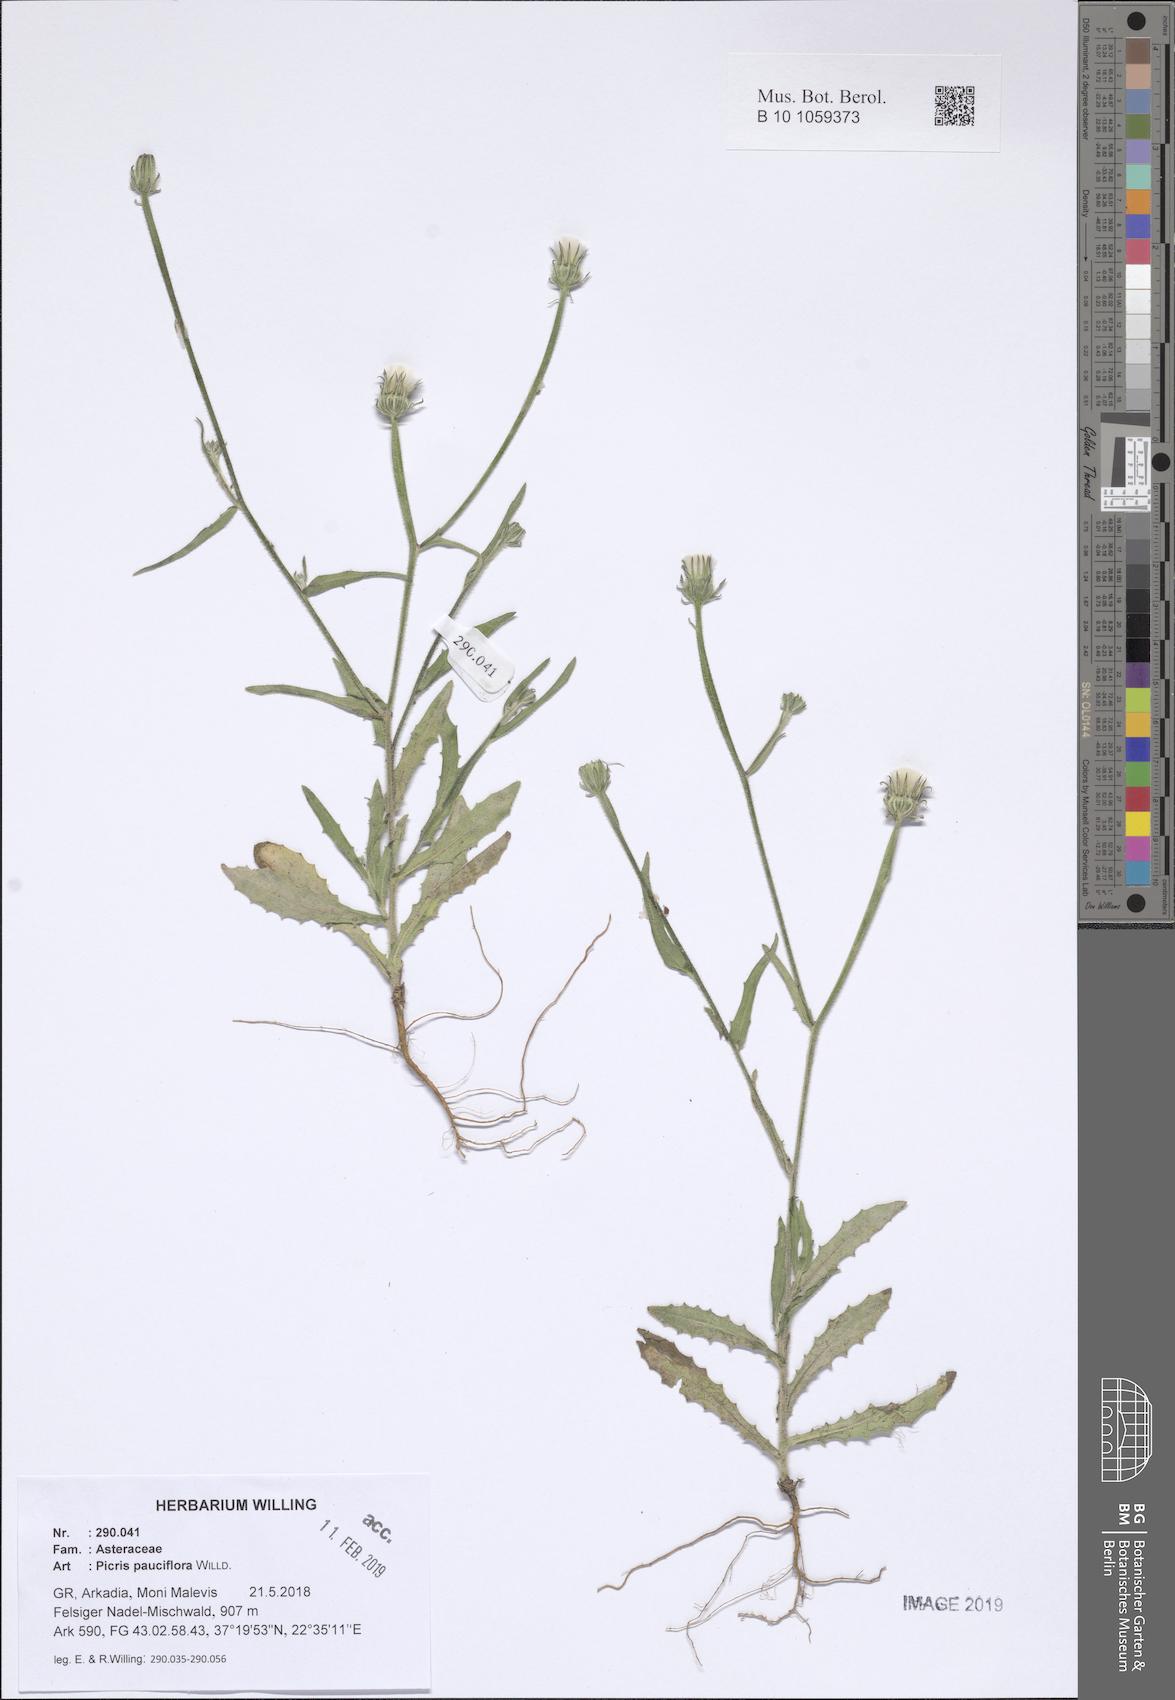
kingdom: Plantae
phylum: Tracheophyta
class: Magnoliopsida
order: Asterales
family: Asteraceae
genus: Picris
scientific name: Picris pauciflora
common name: Smallflower oxtongue
